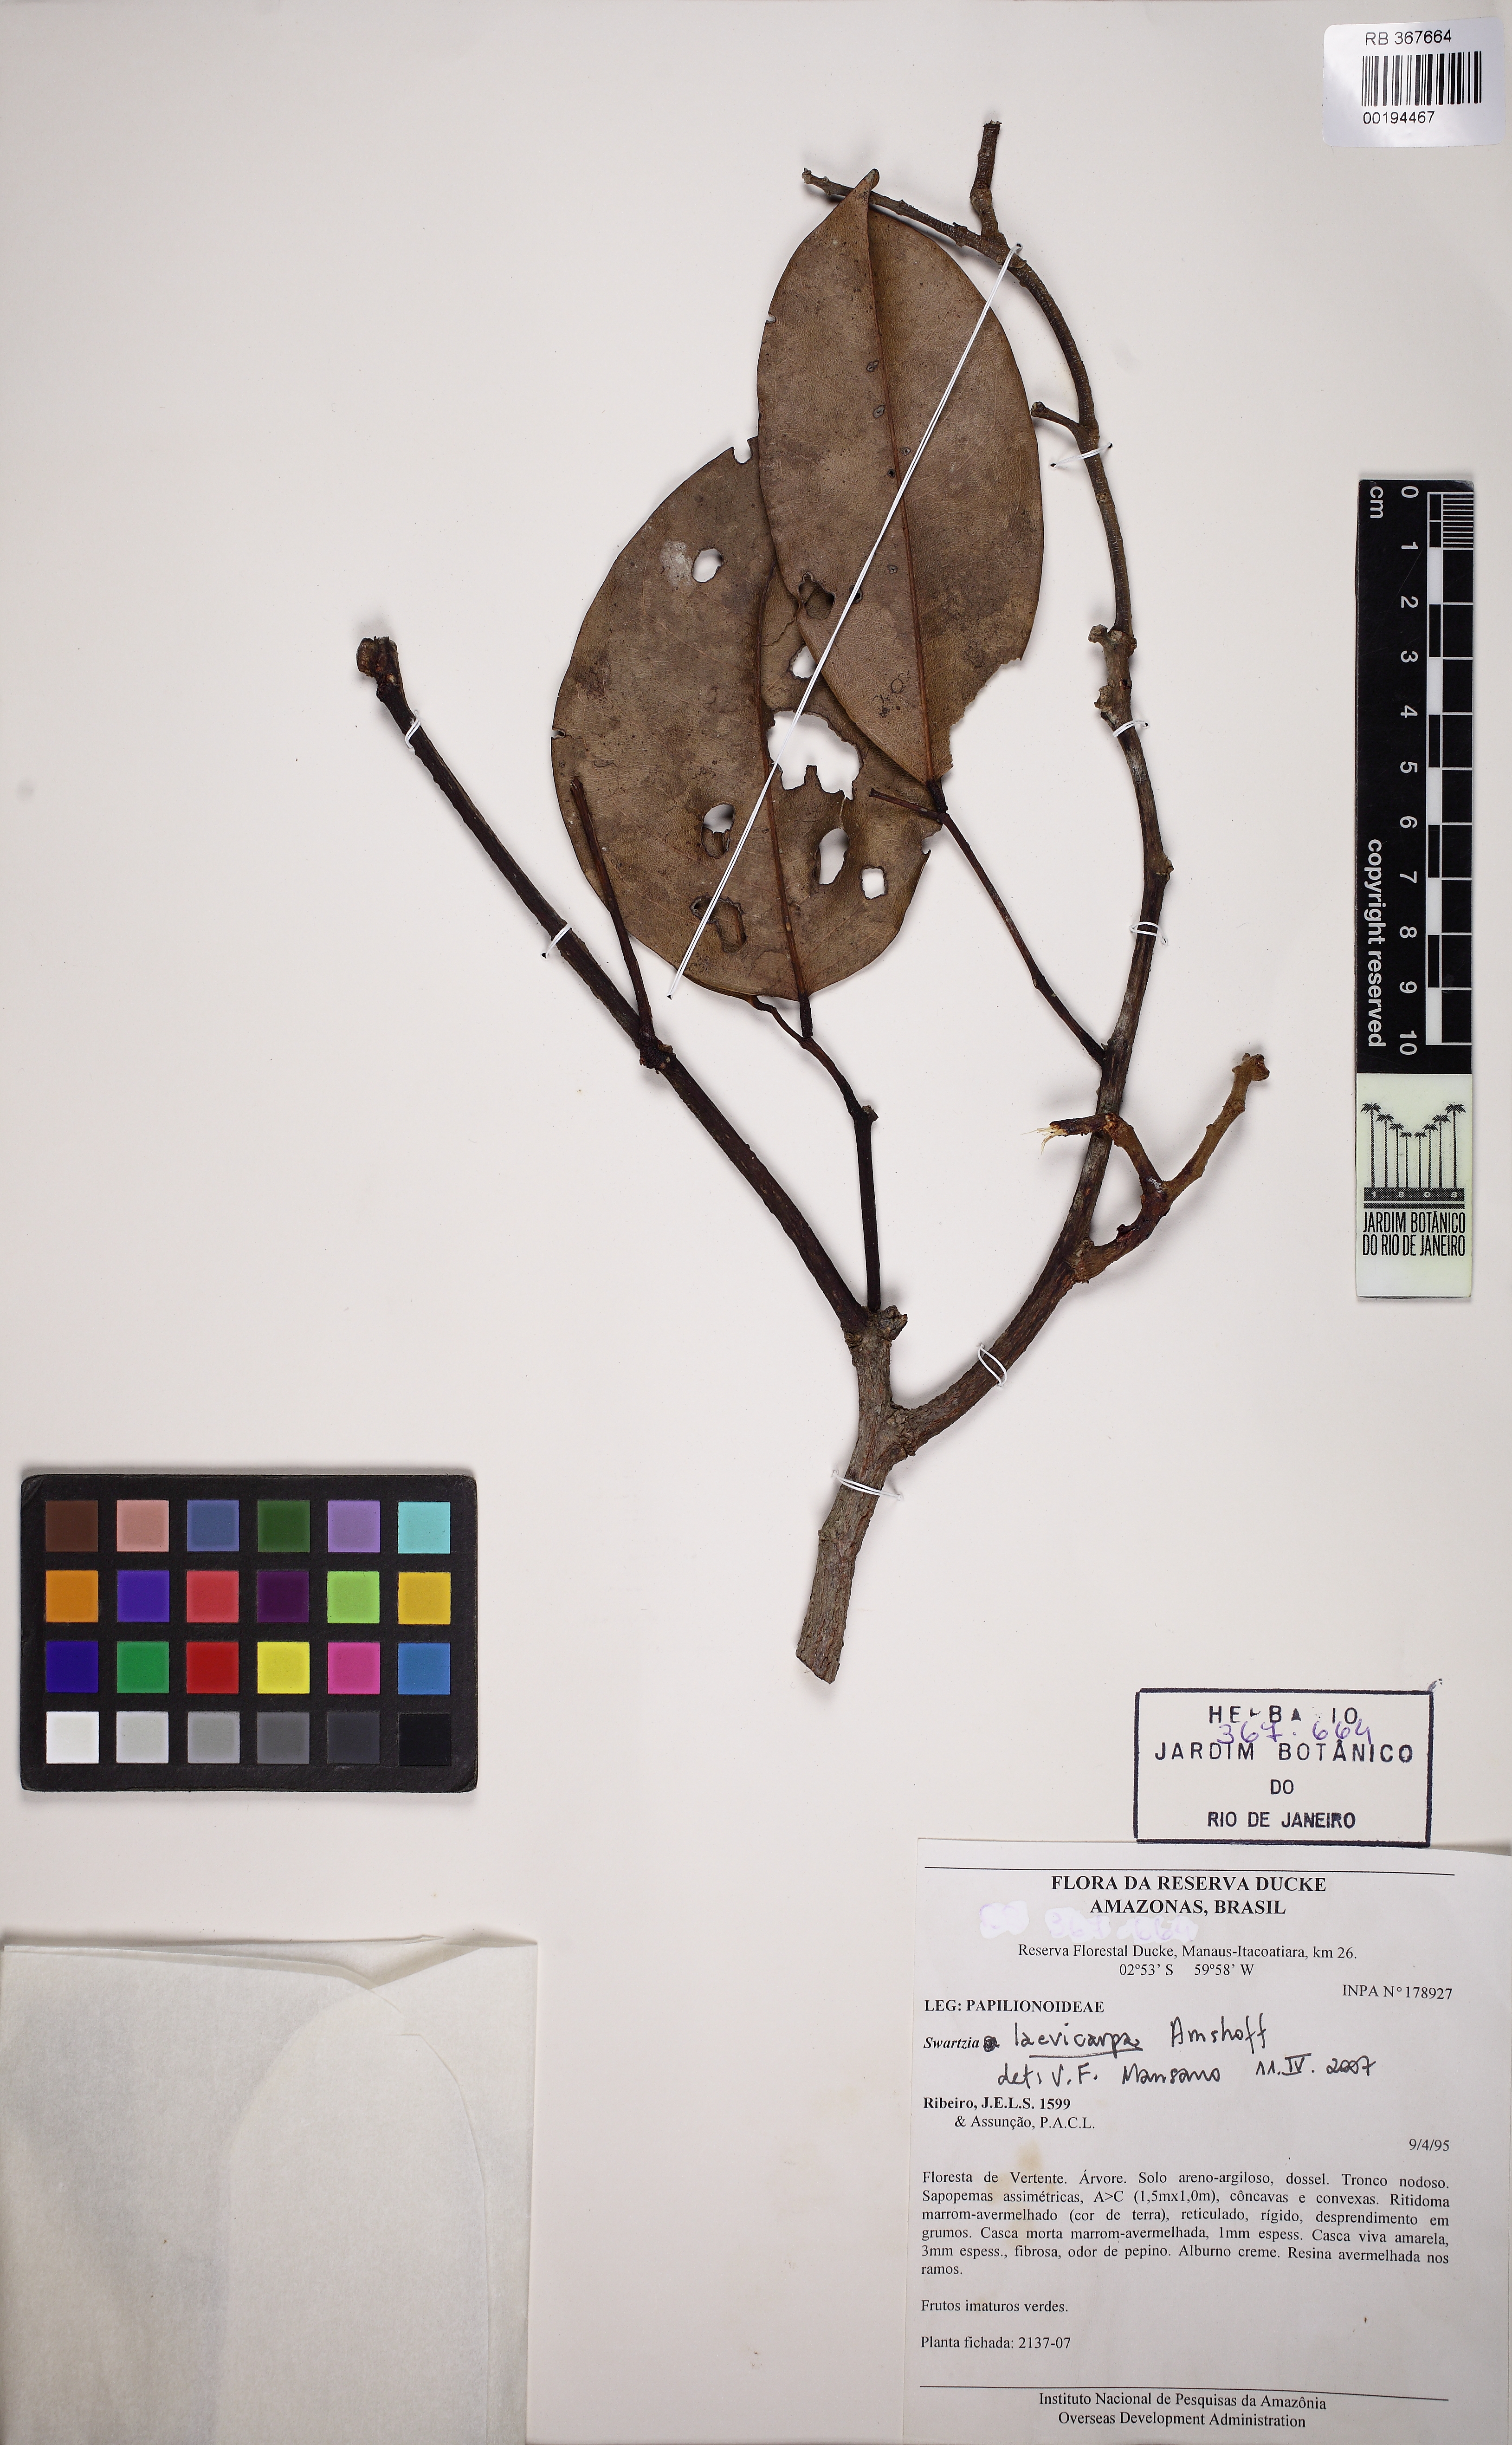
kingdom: Plantae
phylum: Tracheophyta
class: Magnoliopsida
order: Fabales
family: Fabaceae
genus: Swartzia
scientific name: Swartzia laevicarpa
